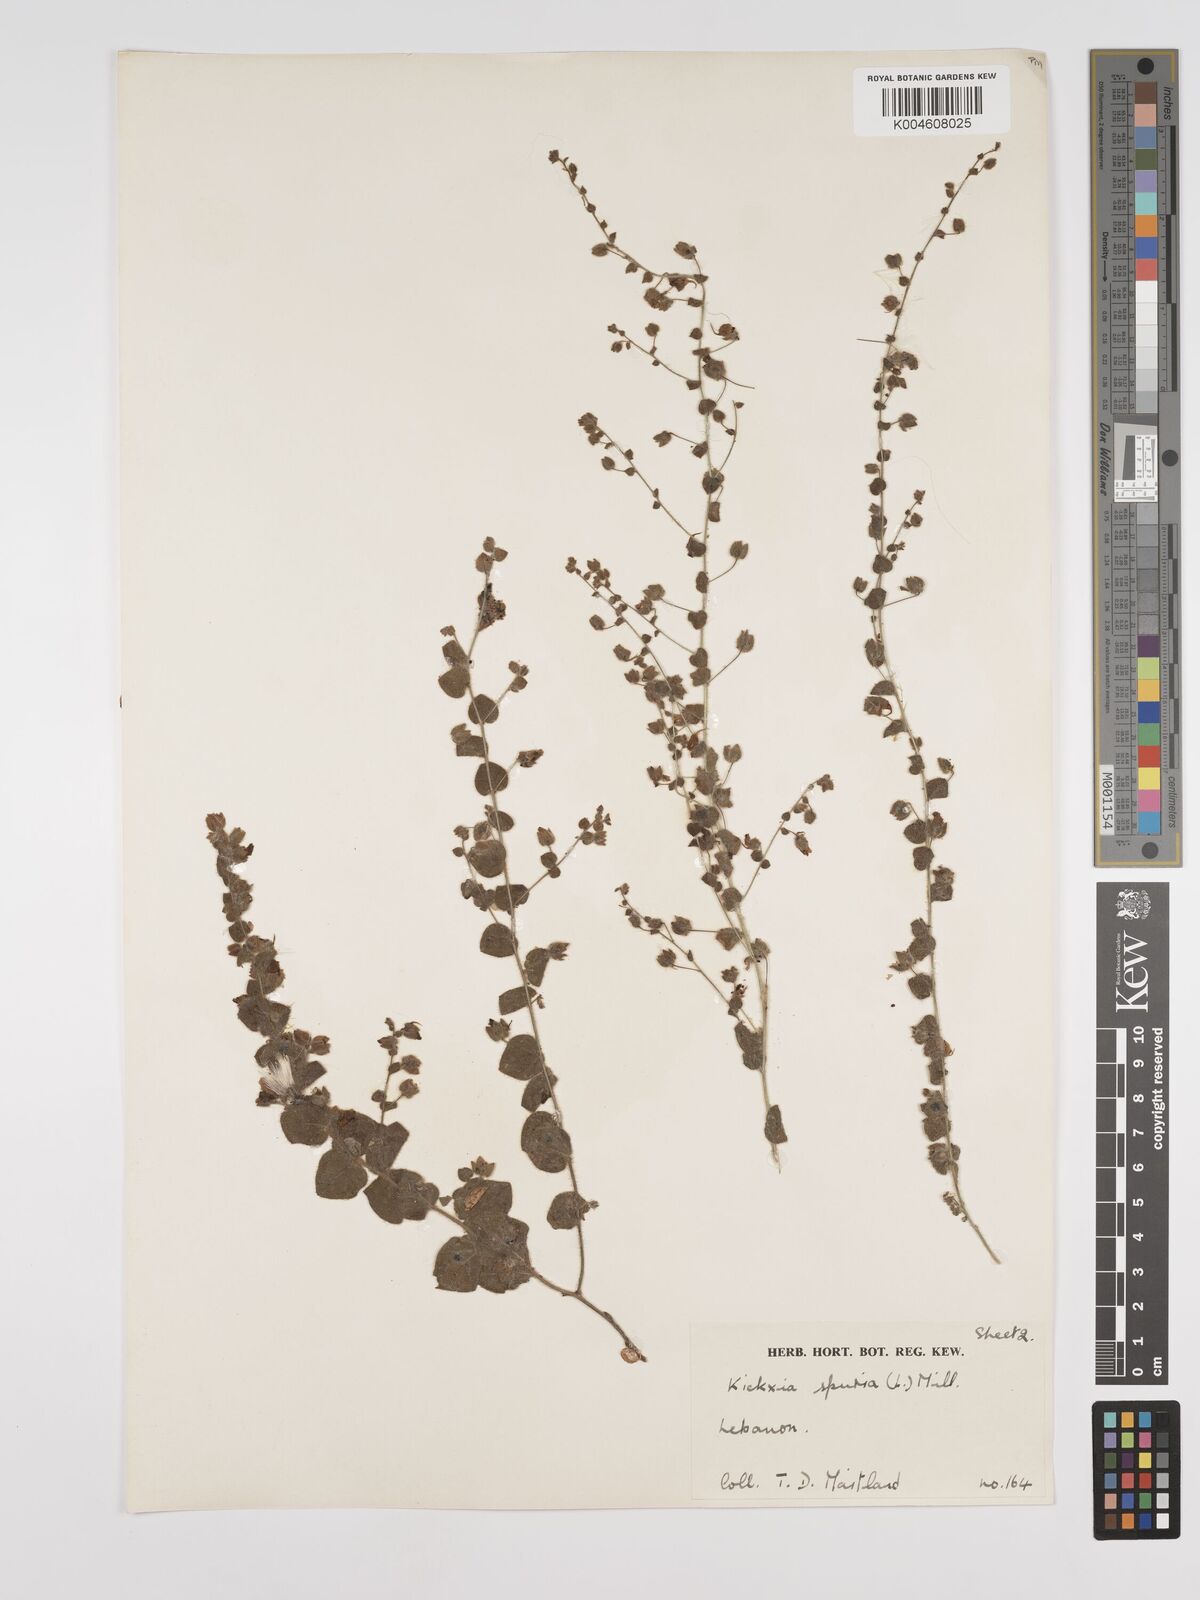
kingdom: Plantae
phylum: Tracheophyta
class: Magnoliopsida
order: Lamiales
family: Plantaginaceae
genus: Kickxia
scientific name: Kickxia spuria
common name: Round-leaved fluellen
